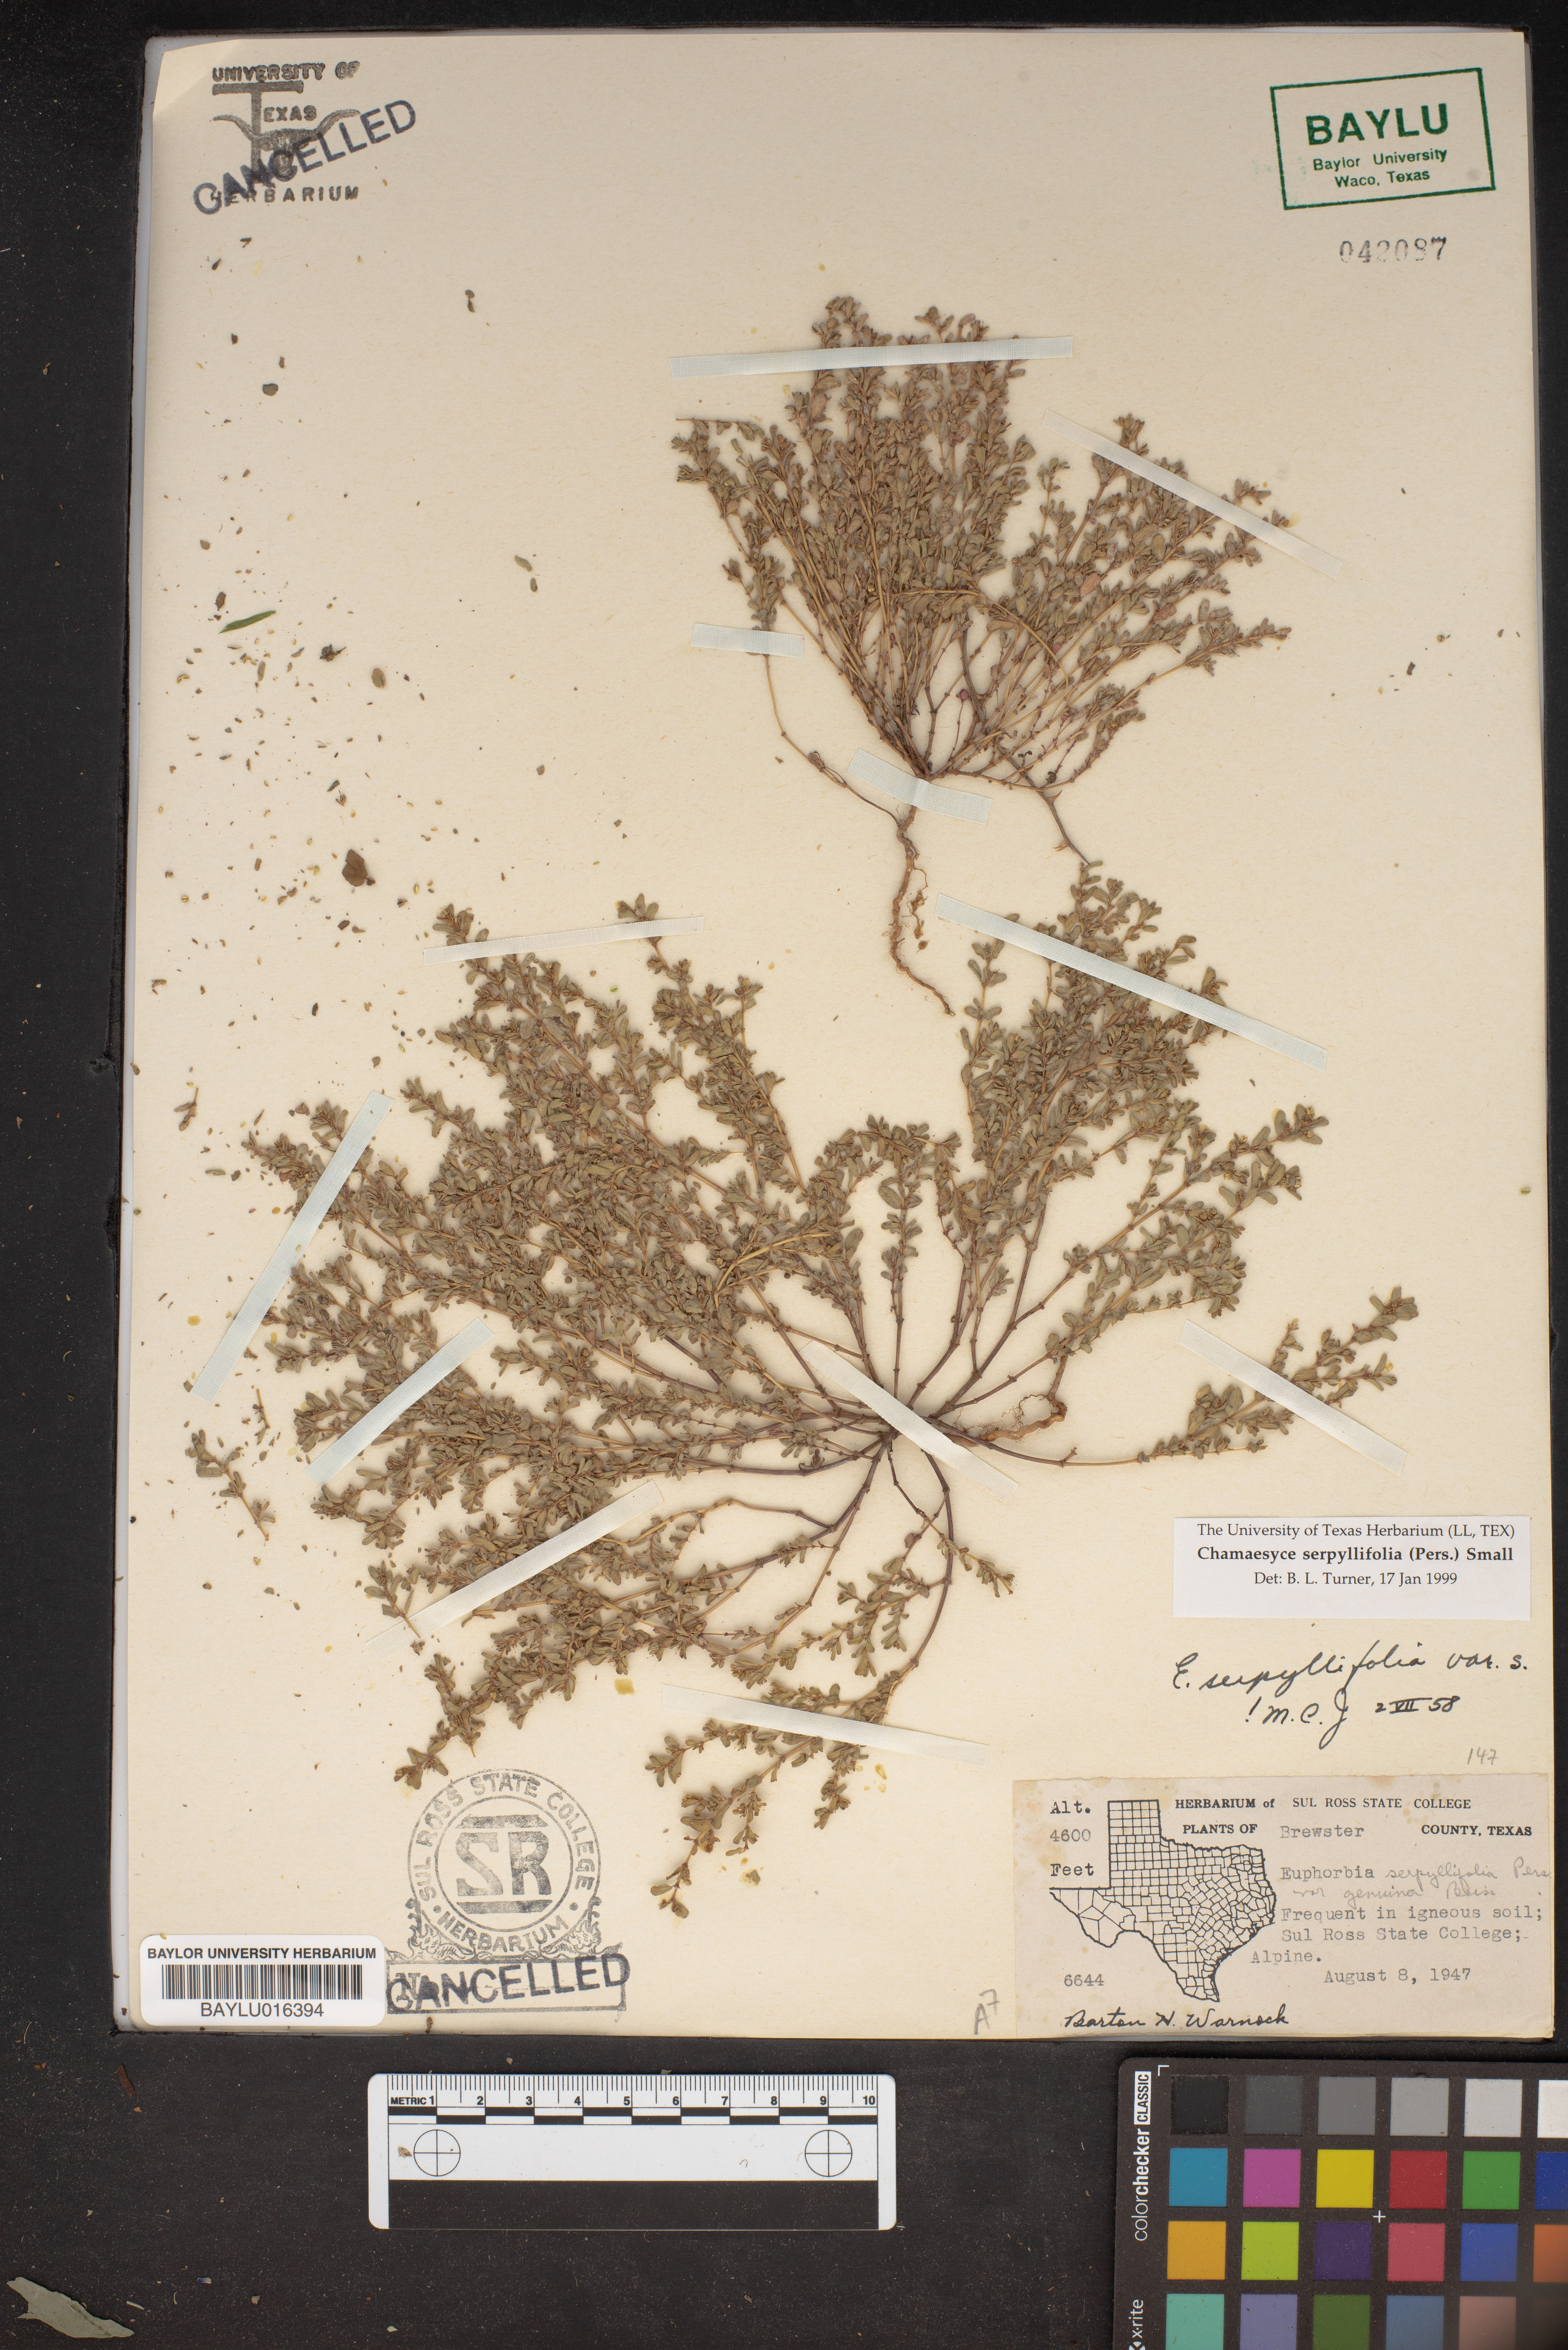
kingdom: Plantae
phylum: Tracheophyta
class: Magnoliopsida
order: Malpighiales
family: Euphorbiaceae
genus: Euphorbia
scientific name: Euphorbia serpillifolia
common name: Thyme-leaf spurge
